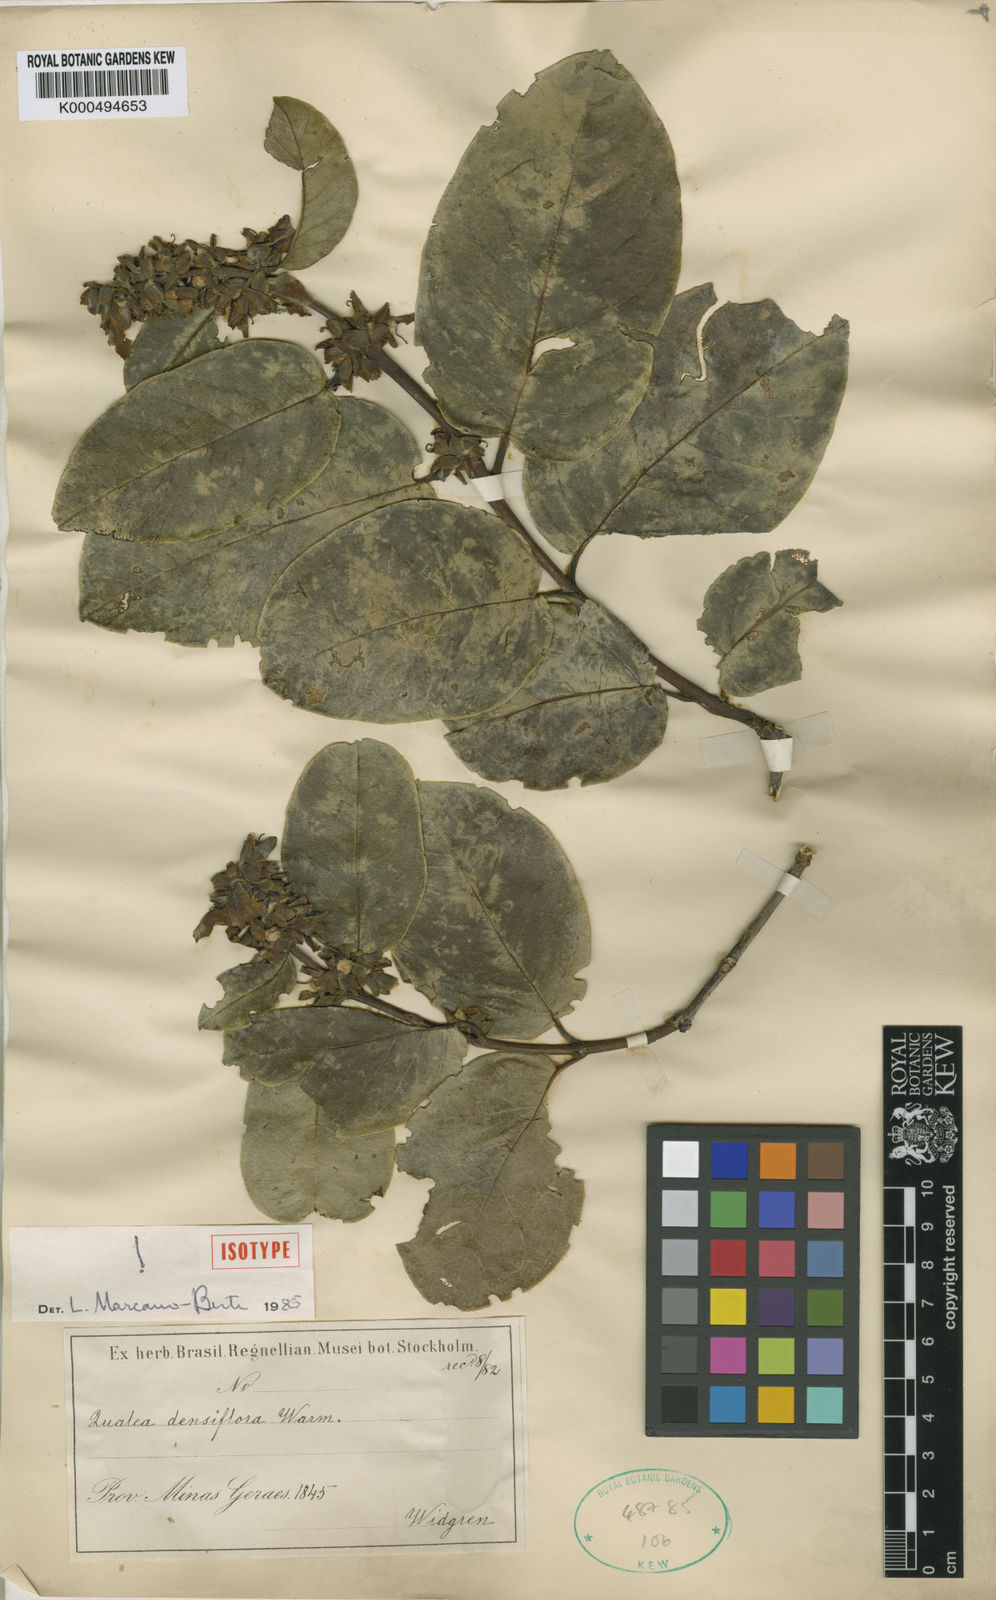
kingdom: Plantae
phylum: Tracheophyta
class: Magnoliopsida
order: Myrtales
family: Vochysiaceae
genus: Qualea
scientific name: Qualea densiflora
